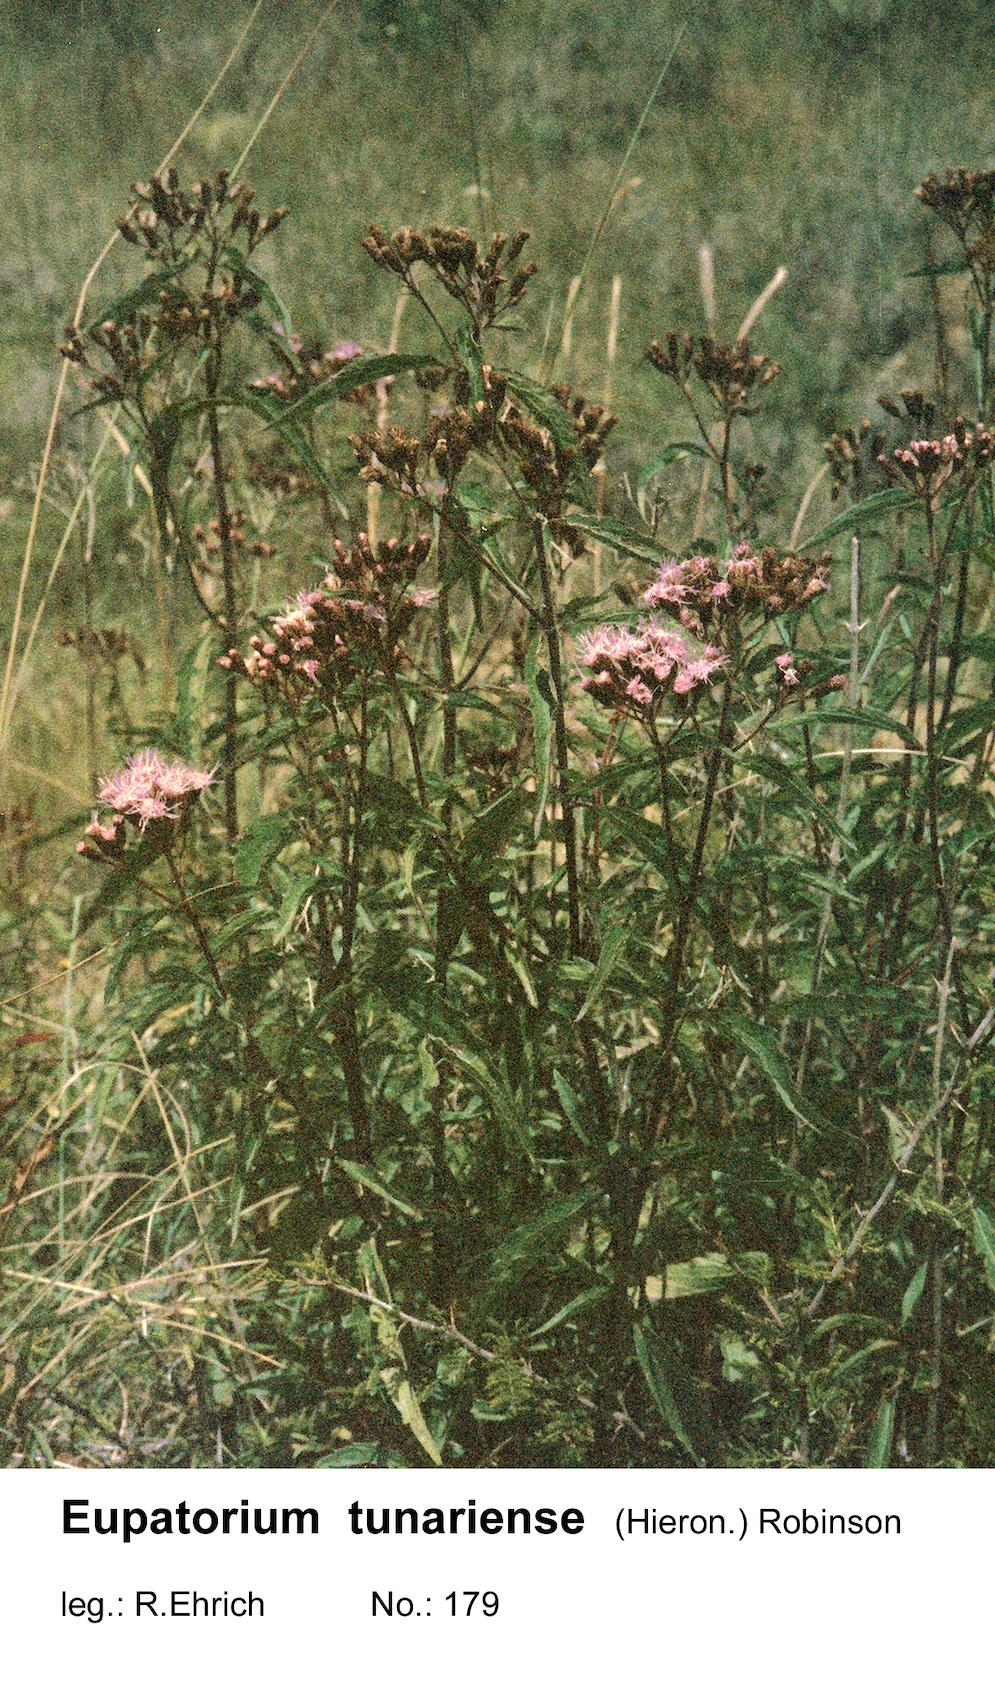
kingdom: Plantae
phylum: Tracheophyta
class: Magnoliopsida
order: Asterales
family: Asteraceae
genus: Chromolaena
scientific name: Chromolaena tunariensis
